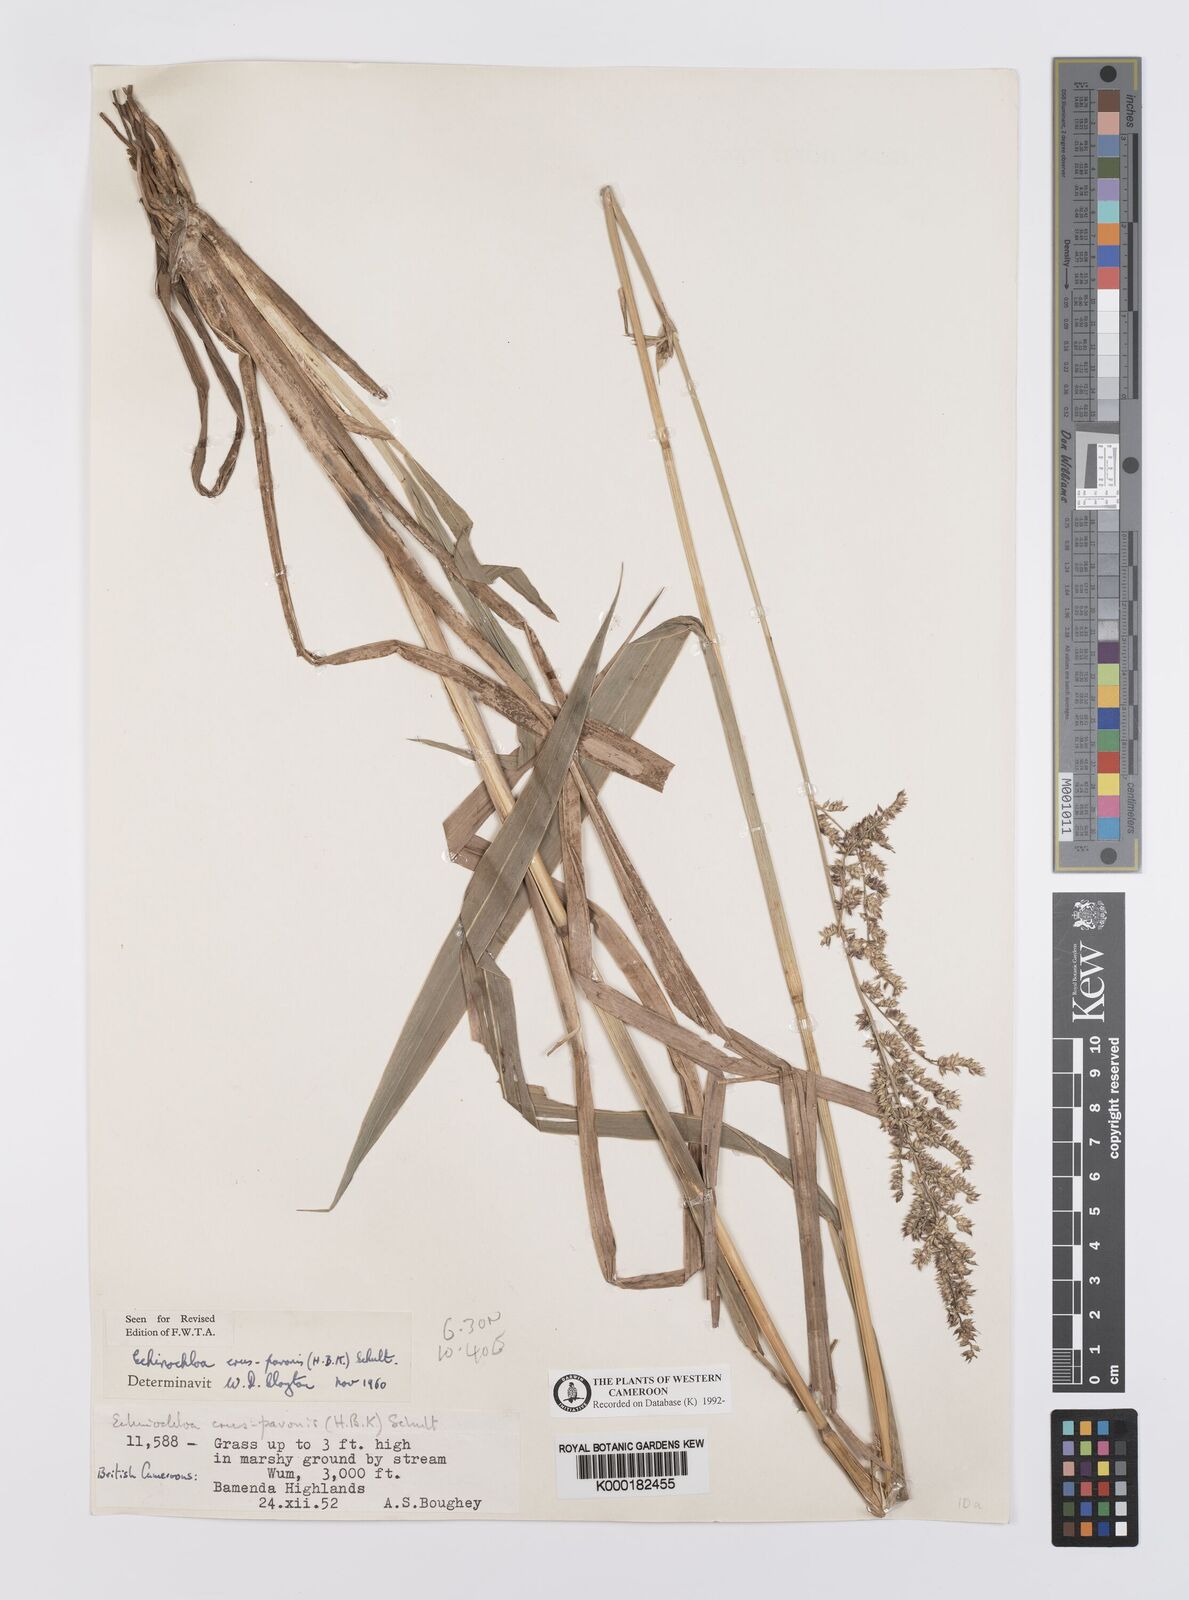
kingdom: Plantae
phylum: Tracheophyta
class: Liliopsida
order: Poales
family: Poaceae
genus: Echinochloa
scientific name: Echinochloa crus-pavonis
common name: Gulf cockspur grass
